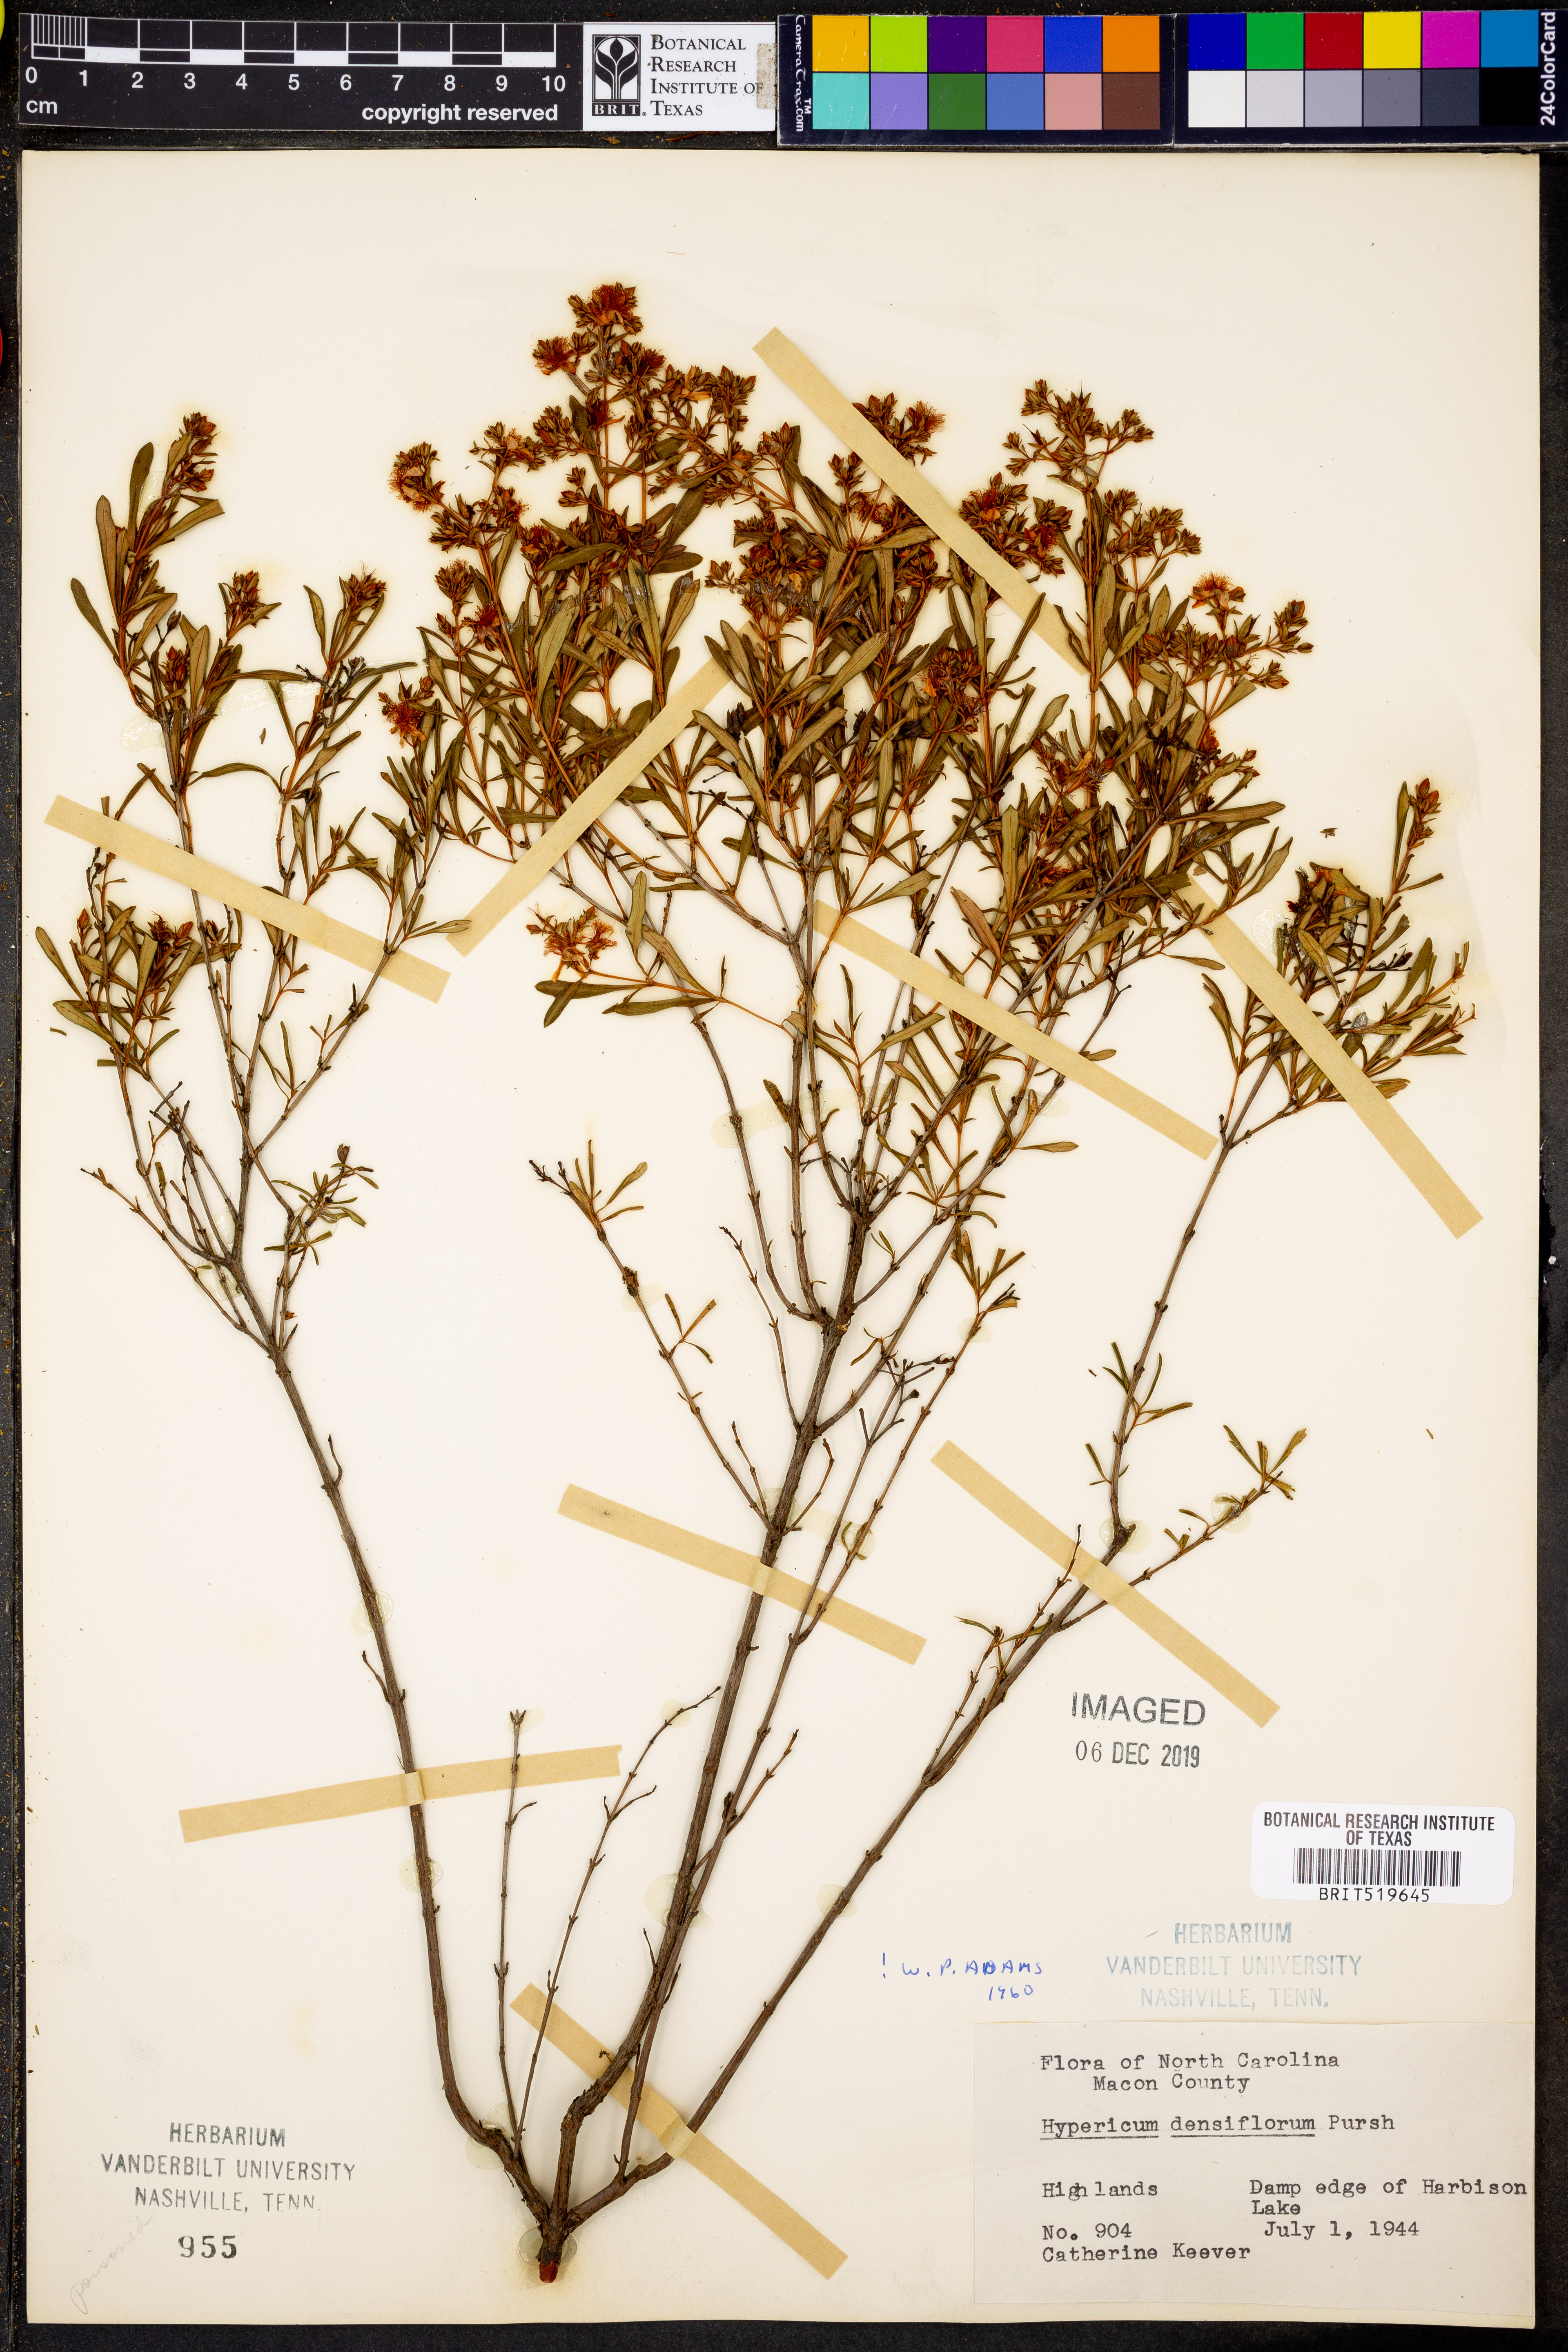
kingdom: Plantae
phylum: Tracheophyta
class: Magnoliopsida
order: Malpighiales
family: Hypericaceae
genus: Hypericum
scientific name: Hypericum densiflorum
